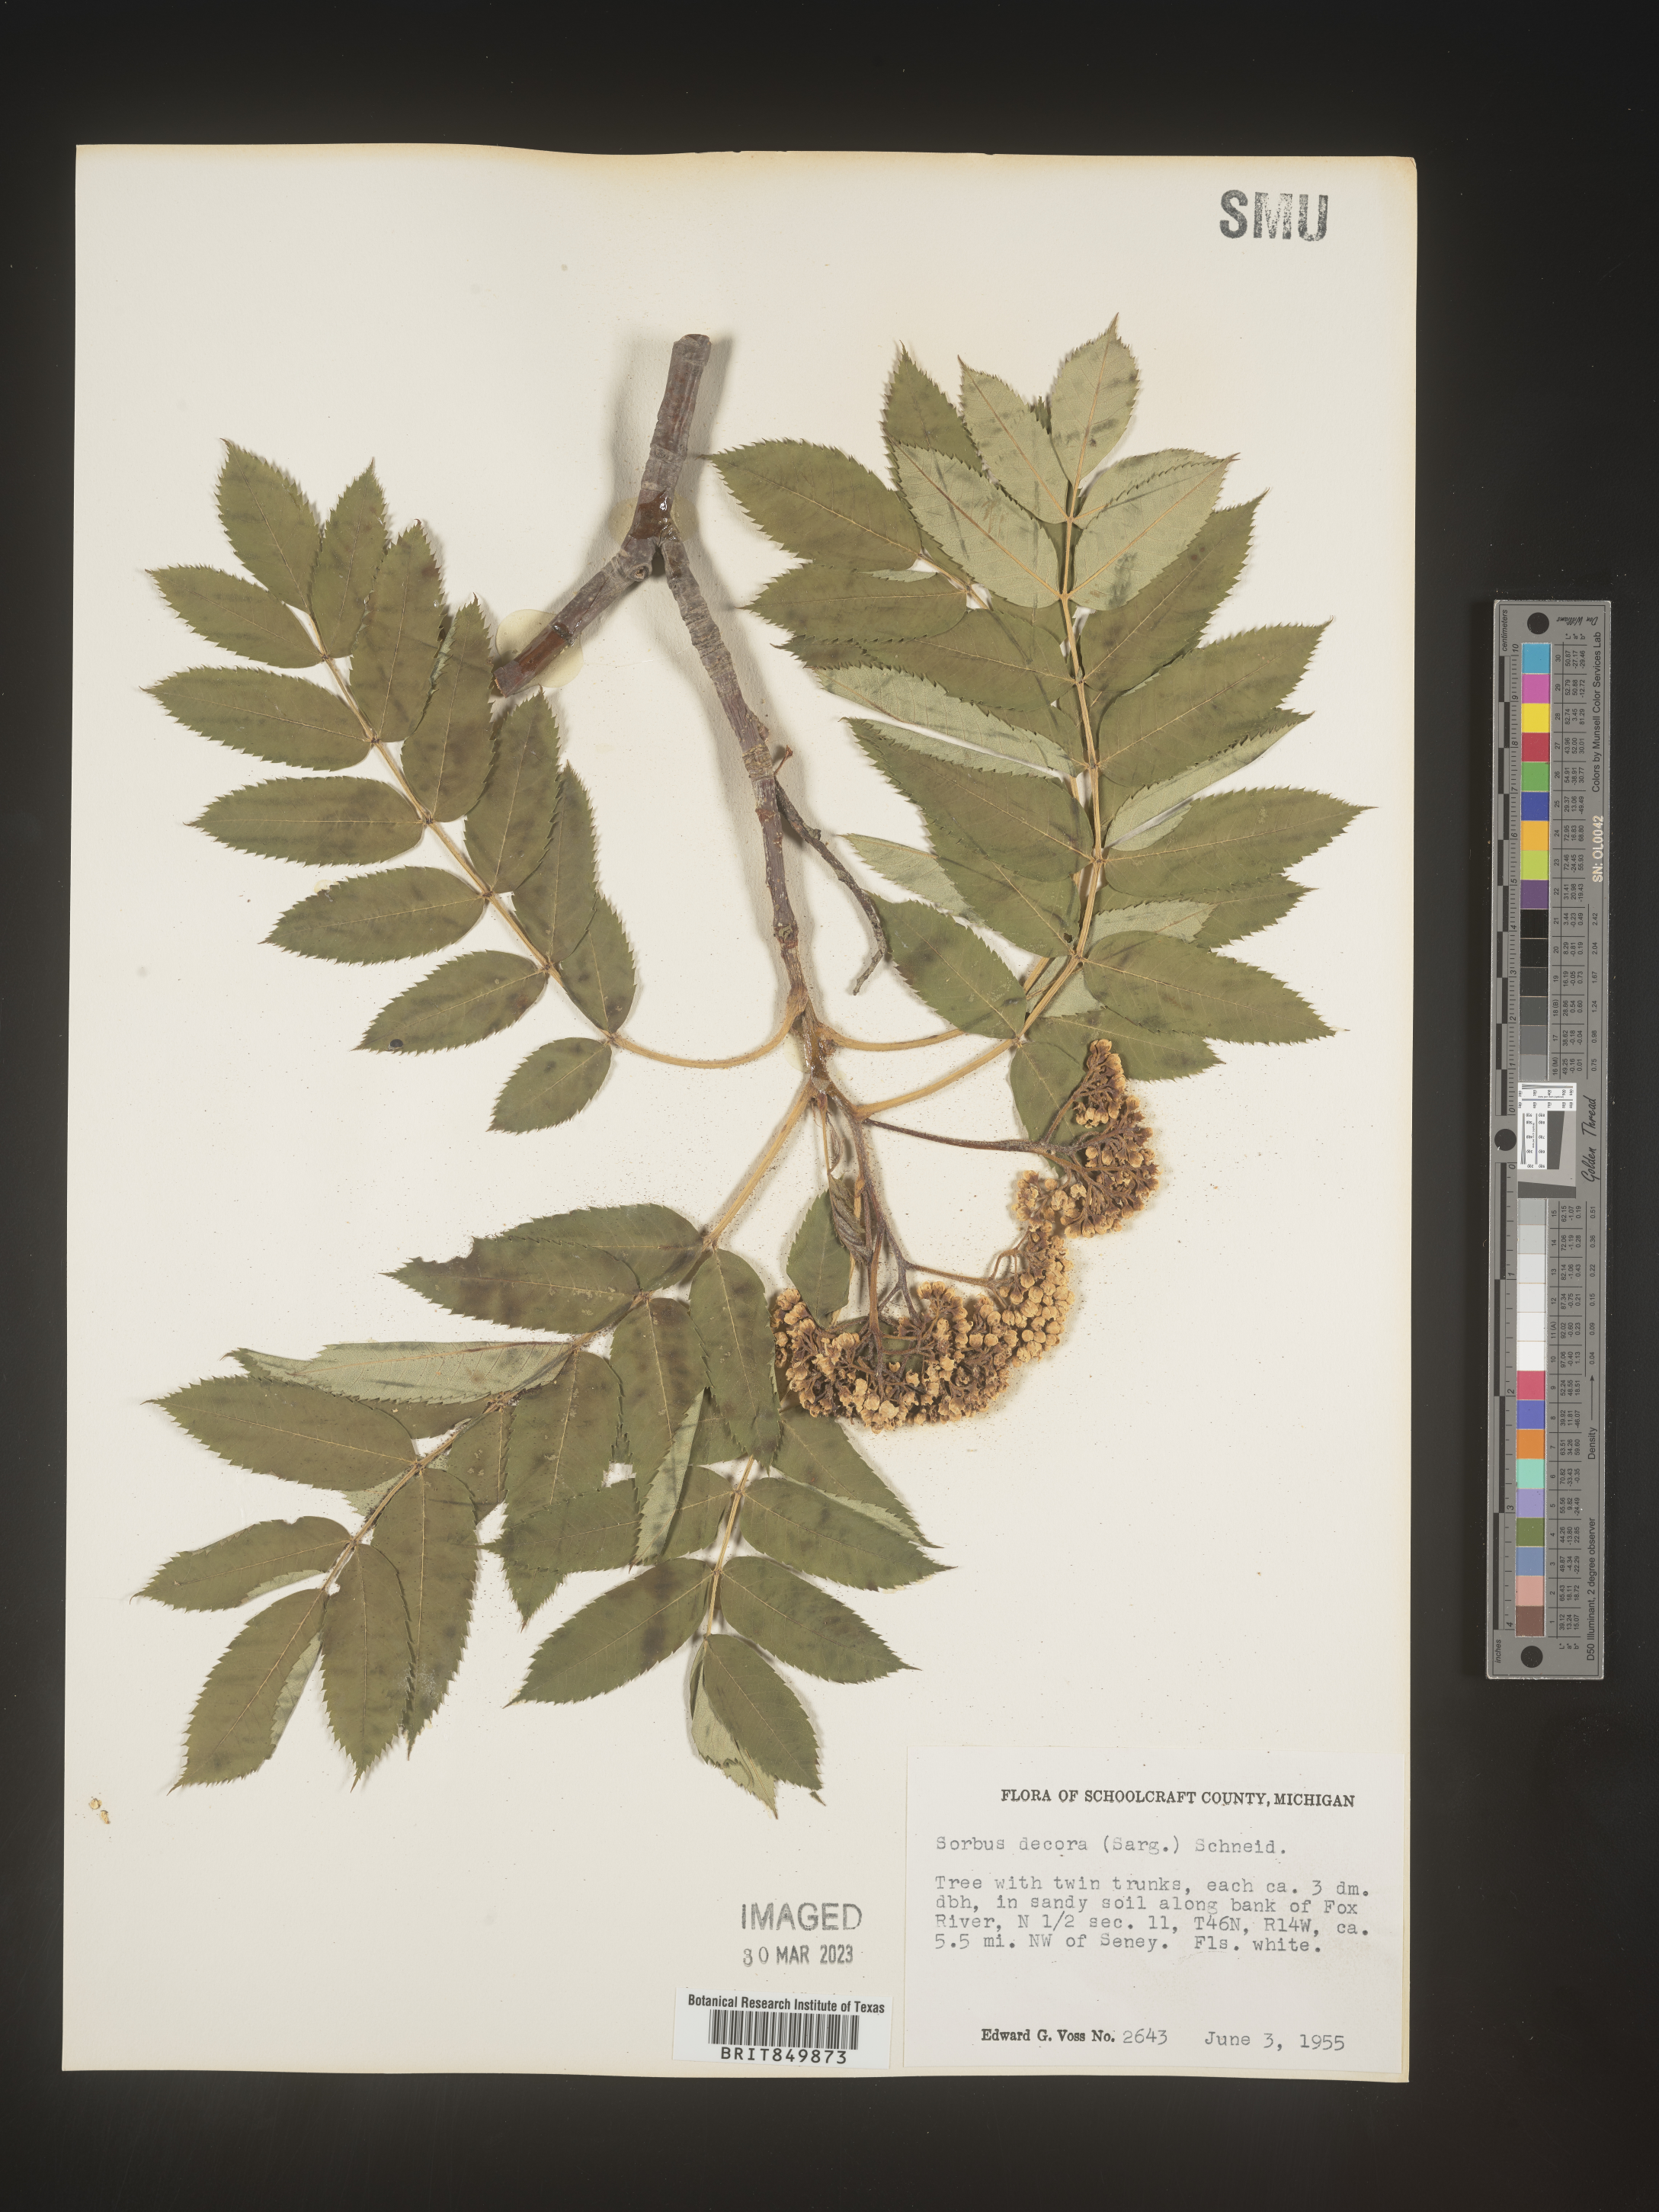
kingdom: Plantae
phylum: Tracheophyta
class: Magnoliopsida
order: Rosales
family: Rosaceae
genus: Sorbus
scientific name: Sorbus
